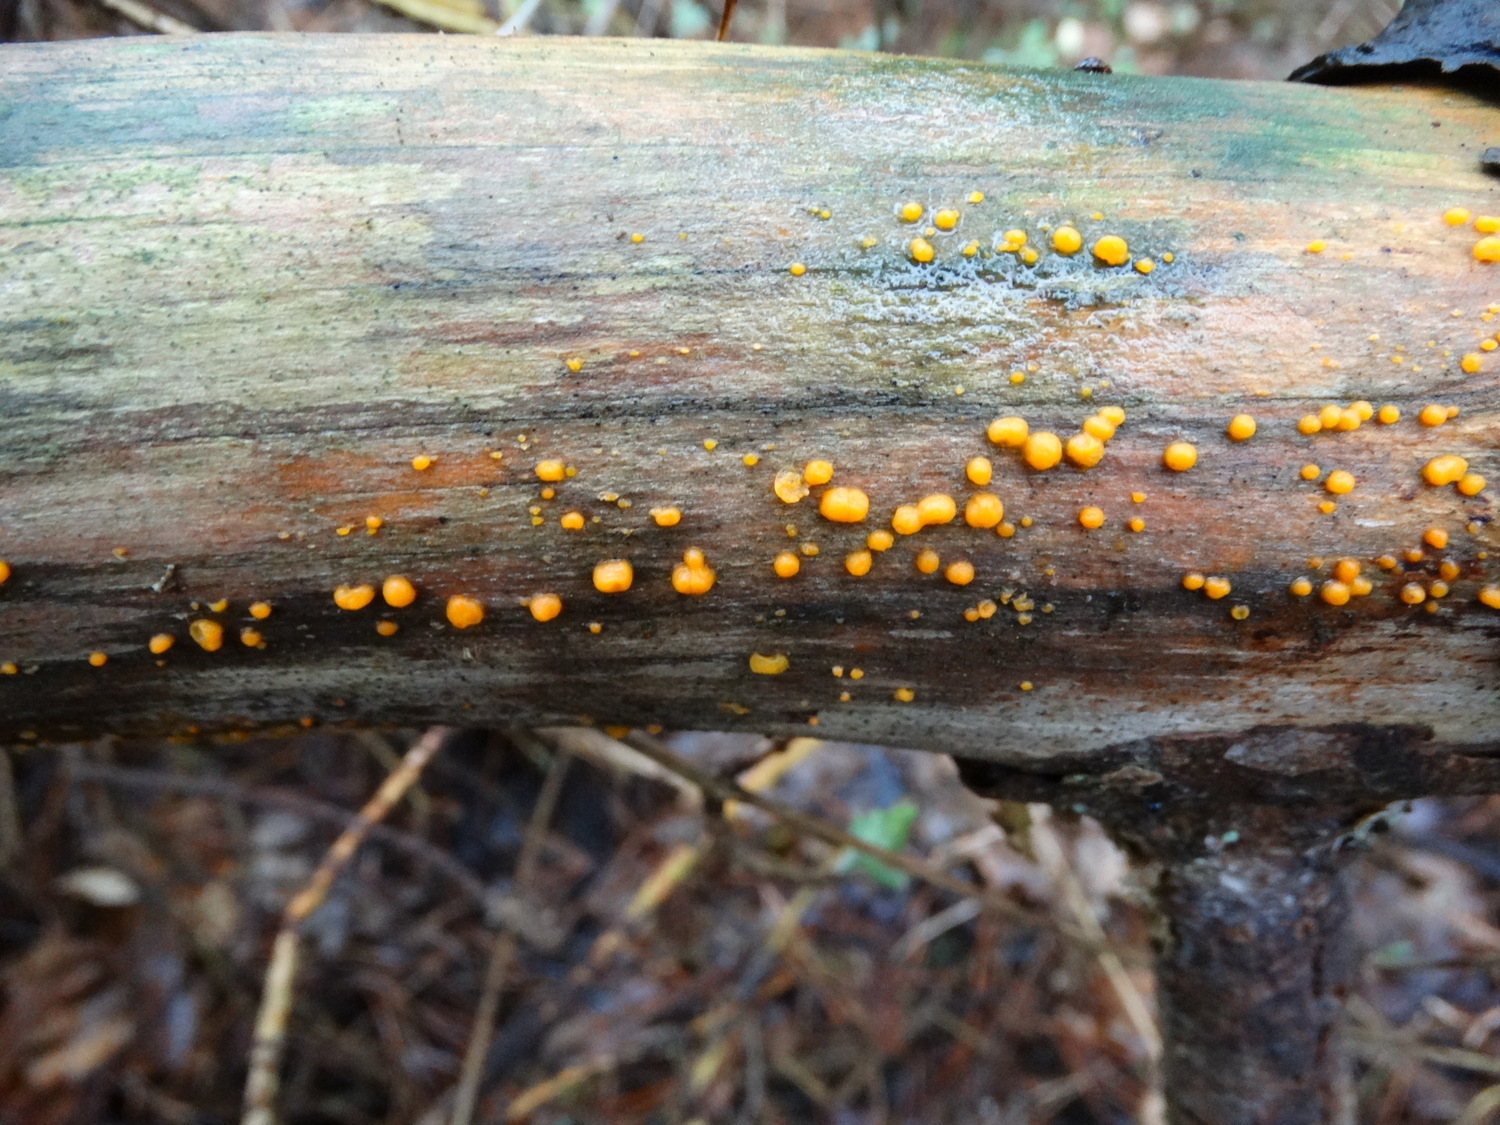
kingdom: Fungi
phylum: Basidiomycota
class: Dacrymycetes
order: Dacrymycetales
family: Dacrymycetaceae
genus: Dacrymyces
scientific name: Dacrymyces stillatus
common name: almindelig tåresvamp
